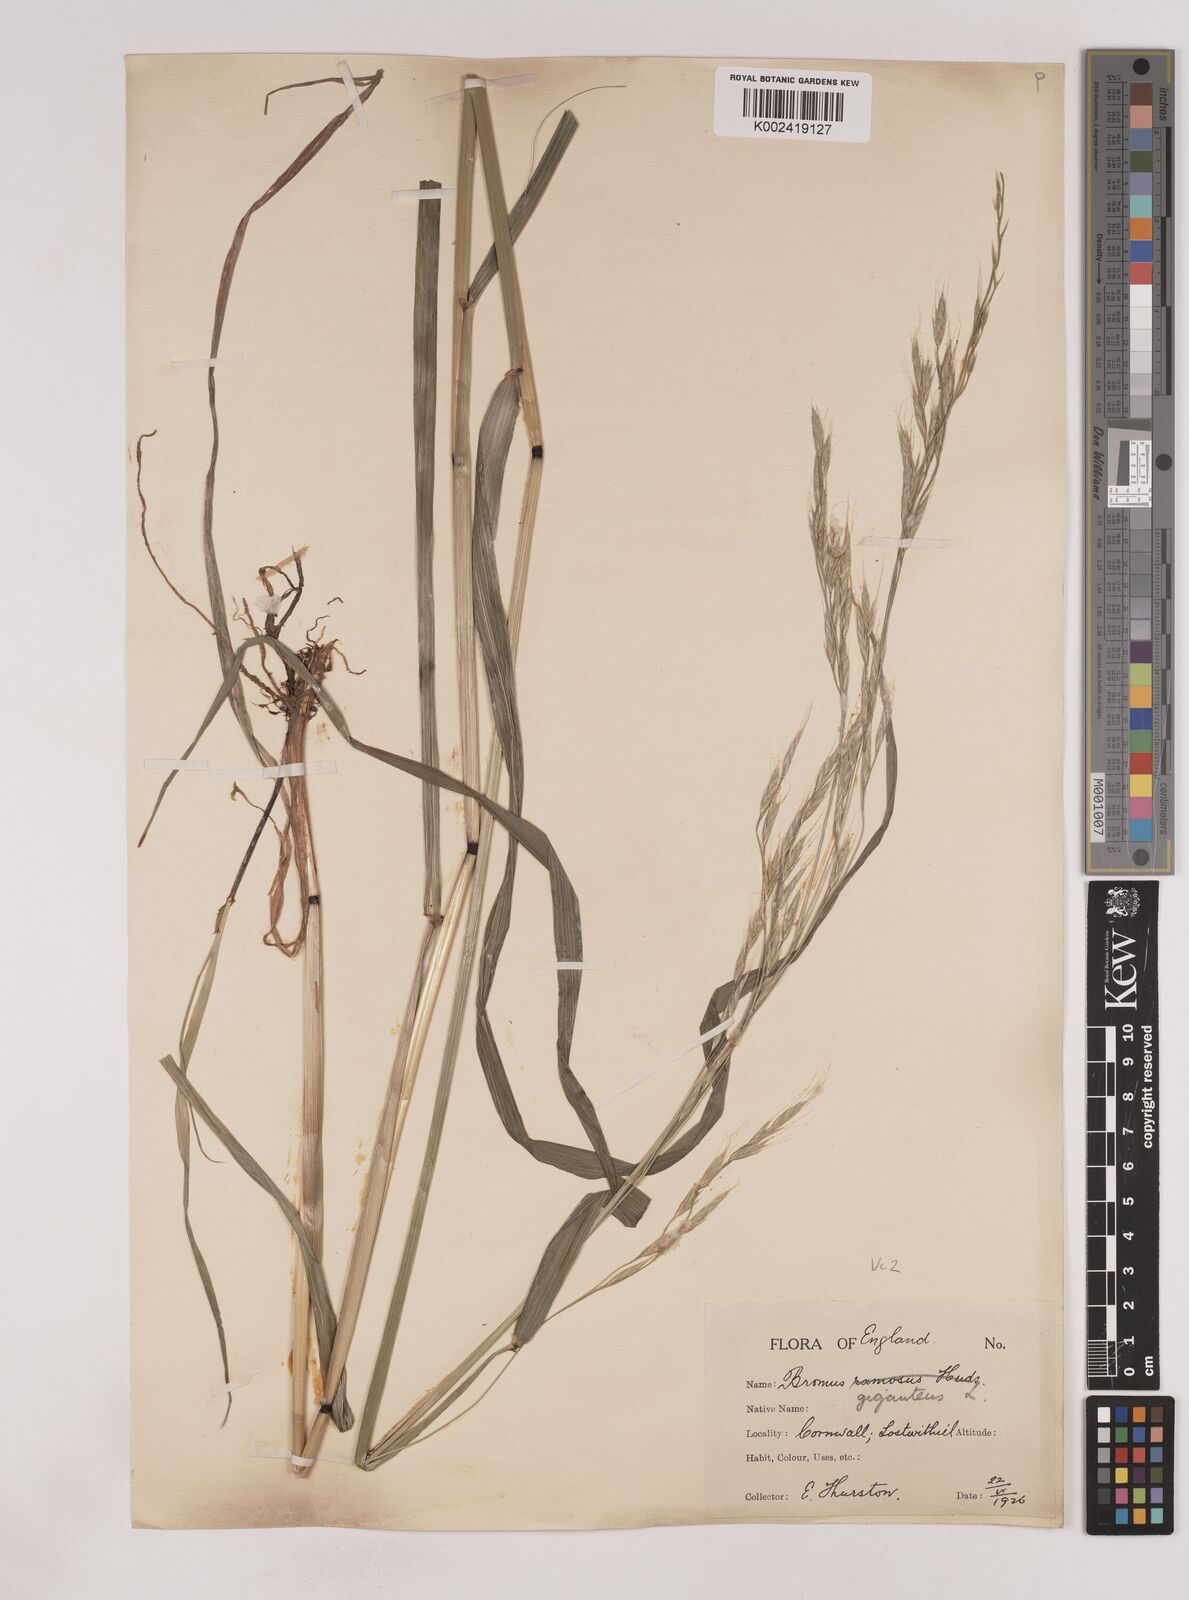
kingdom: Plantae
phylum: Tracheophyta
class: Liliopsida
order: Poales
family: Poaceae
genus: Lolium
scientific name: Lolium giganteum
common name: Giant fescue
